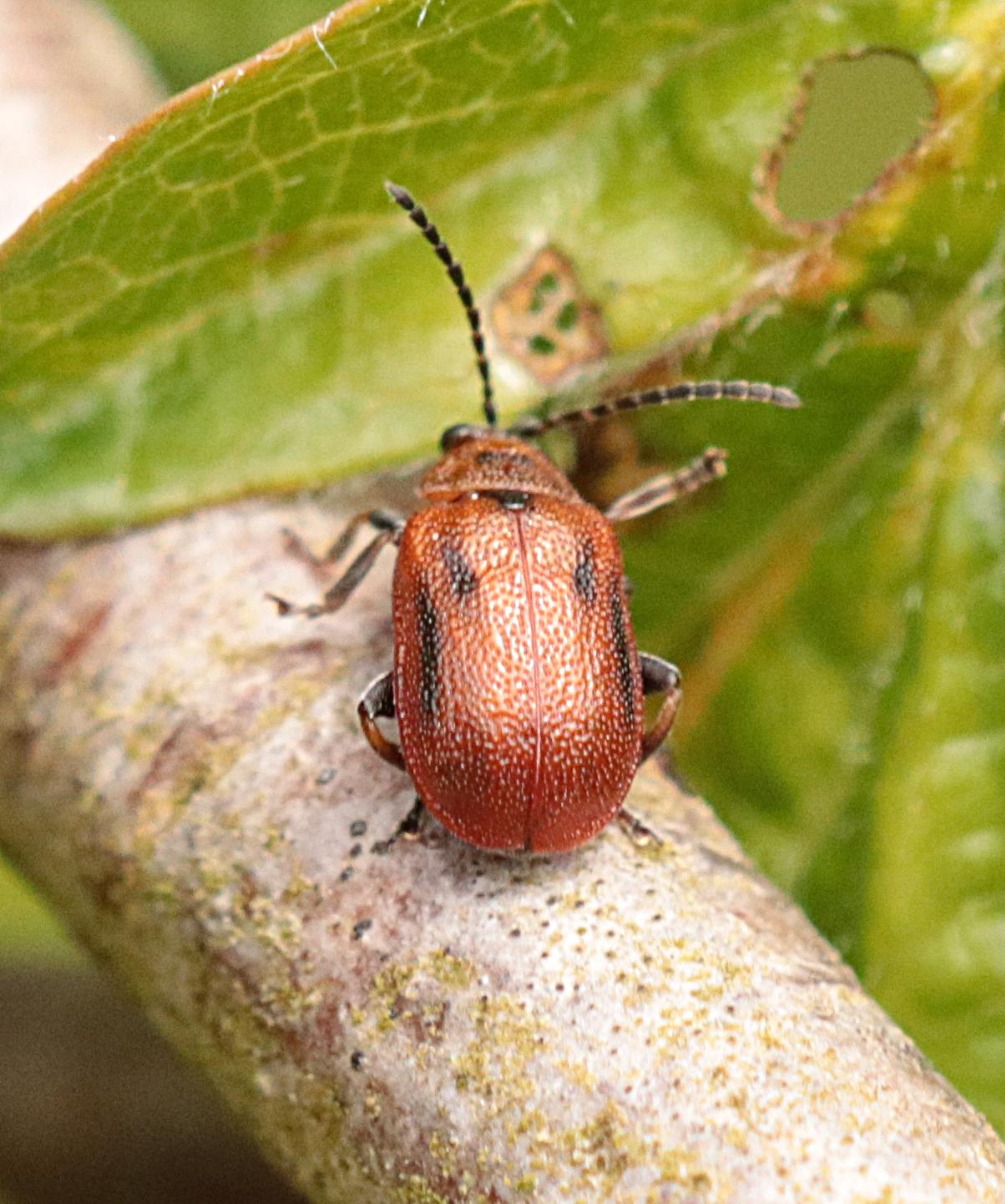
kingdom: Animalia
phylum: Arthropoda
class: Insecta
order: Coleoptera
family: Chrysomelidae
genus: Lochmaea
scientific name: Lochmaea crataegi
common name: Tjørnebladbille
